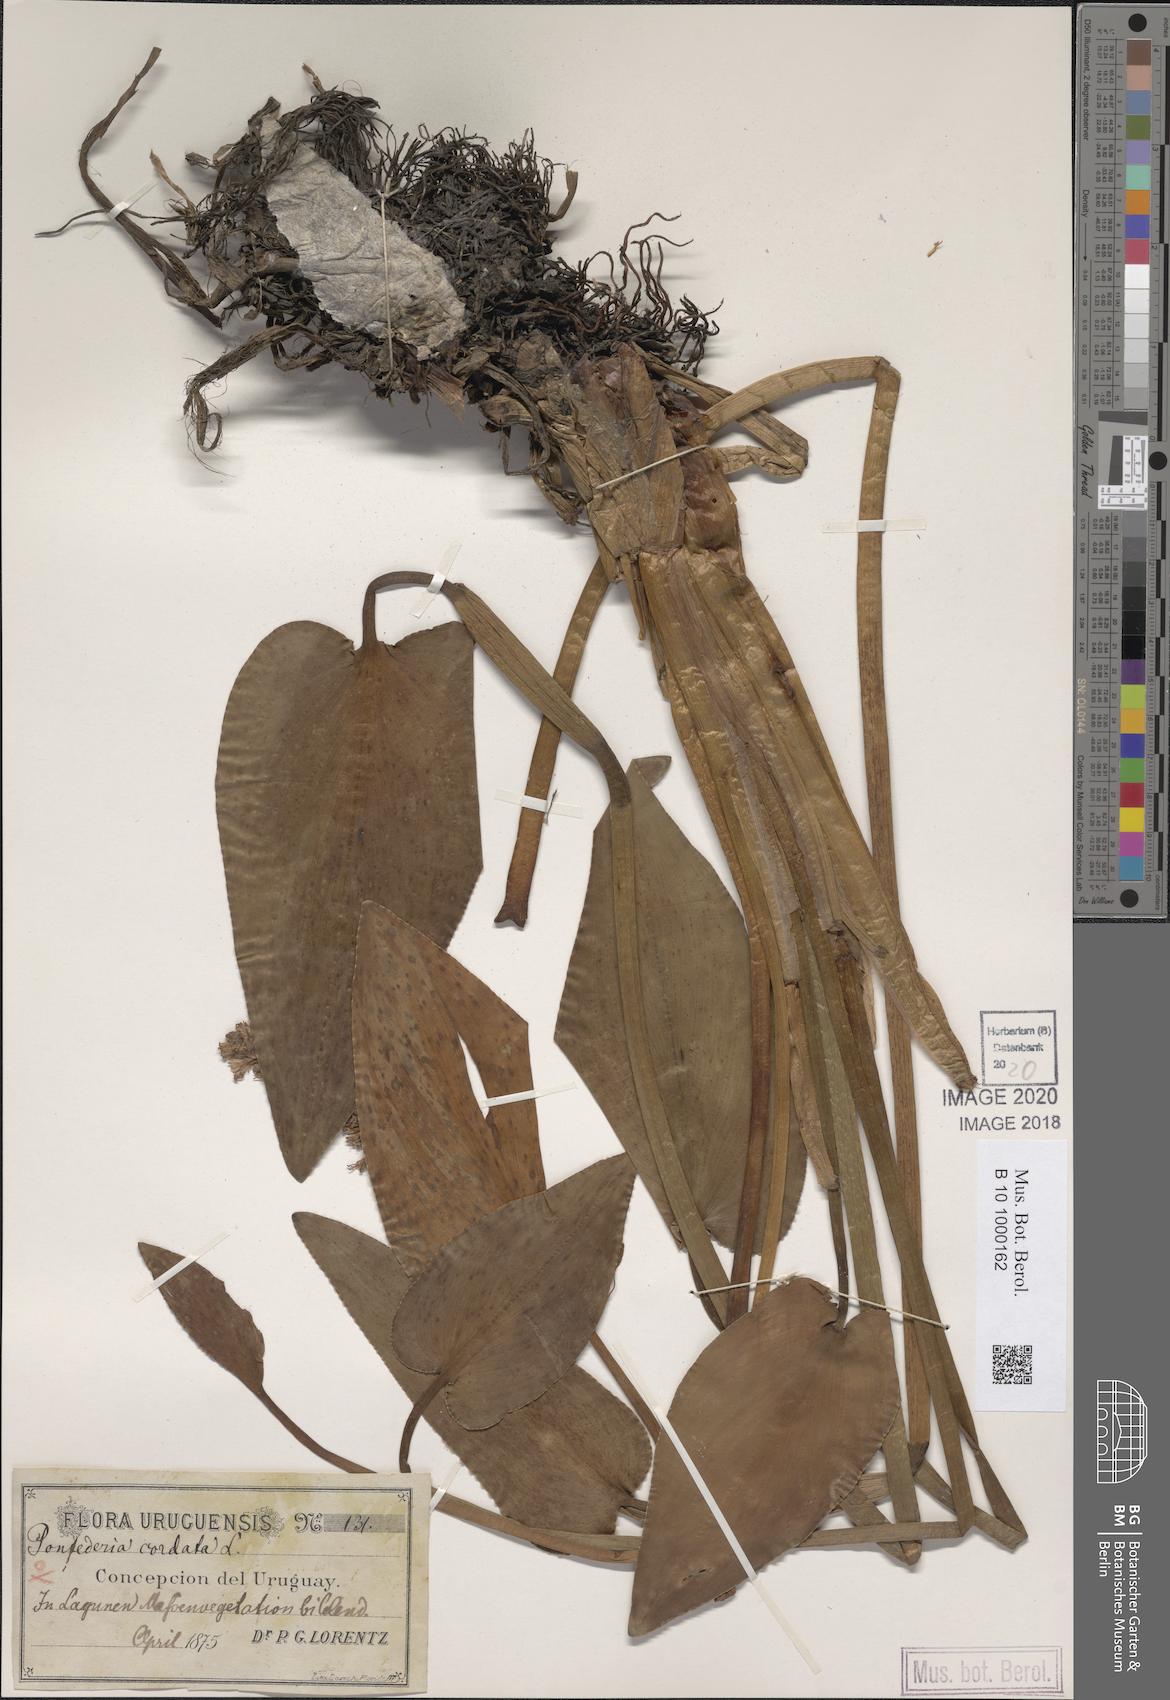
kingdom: Plantae
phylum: Tracheophyta
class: Liliopsida
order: Commelinales
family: Pontederiaceae
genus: Pontederia
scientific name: Pontederia cordata
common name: Pickerelweed
